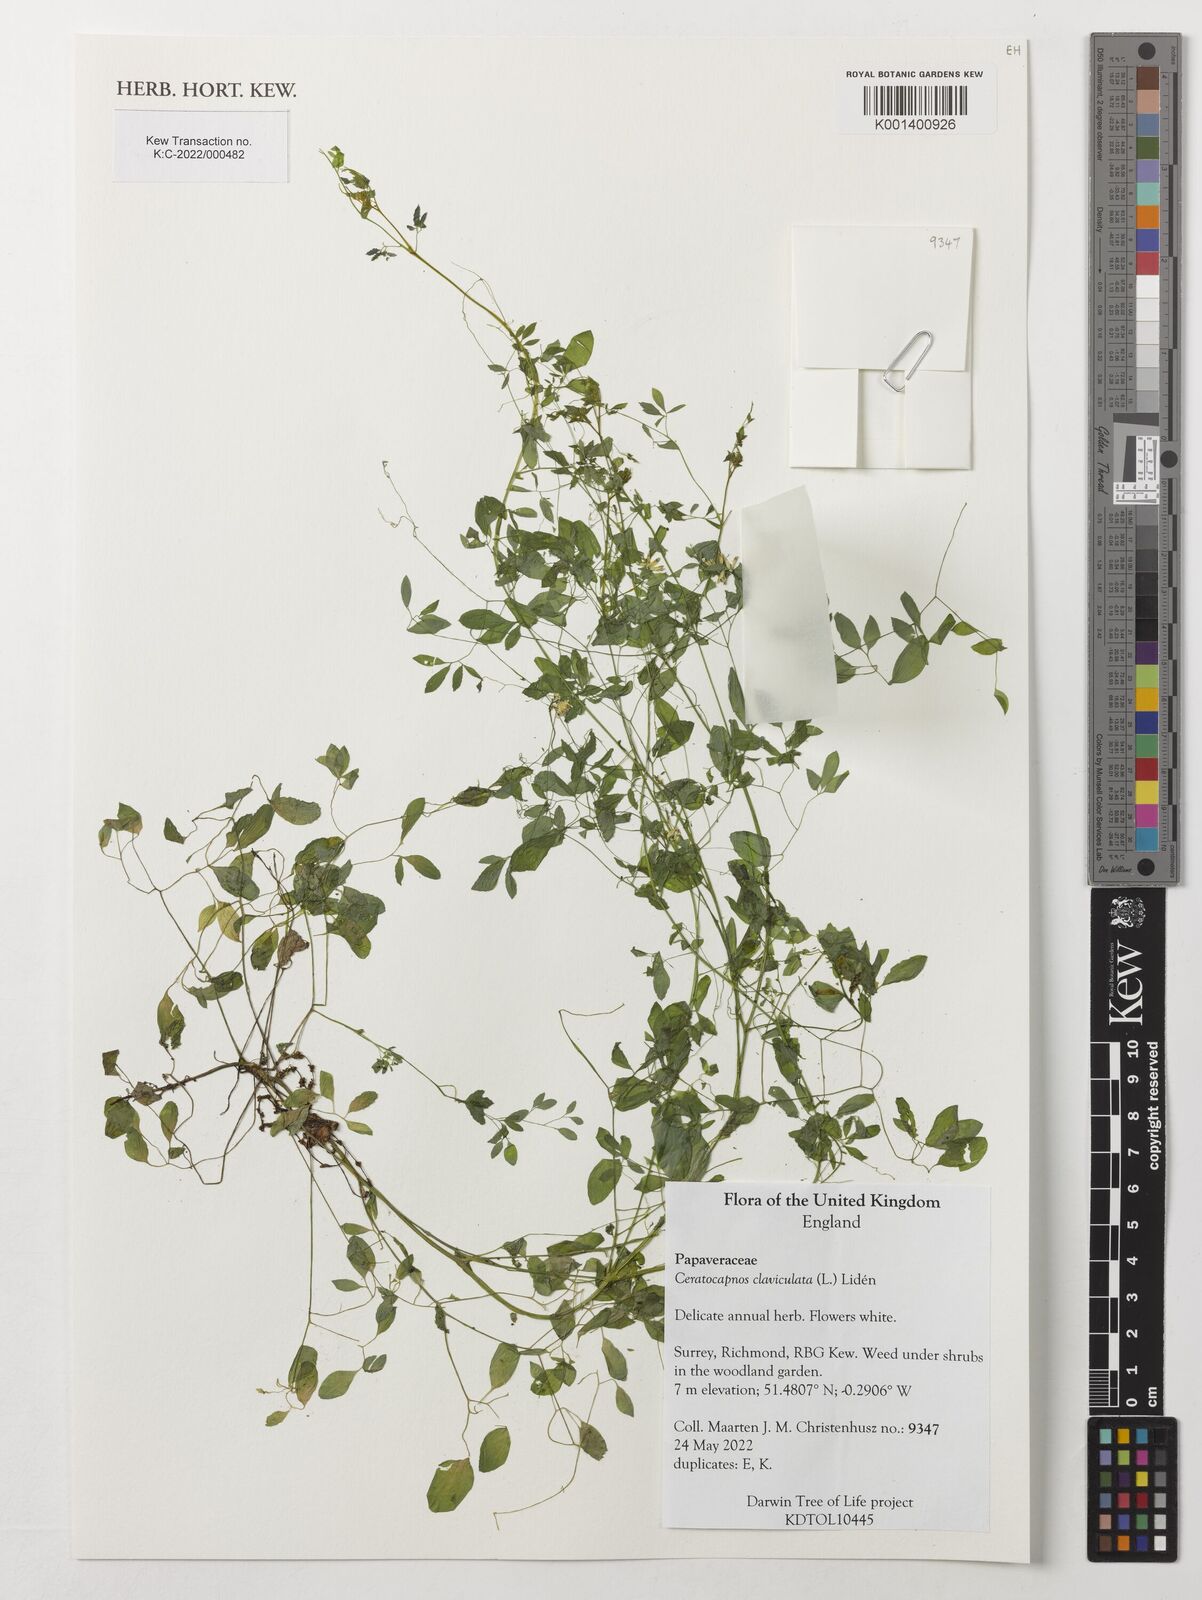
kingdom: Plantae
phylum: Tracheophyta
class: Magnoliopsida
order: Ranunculales
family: Papaveraceae
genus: Ceratocapnos
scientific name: Ceratocapnos claviculata
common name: Climbing corydalis
